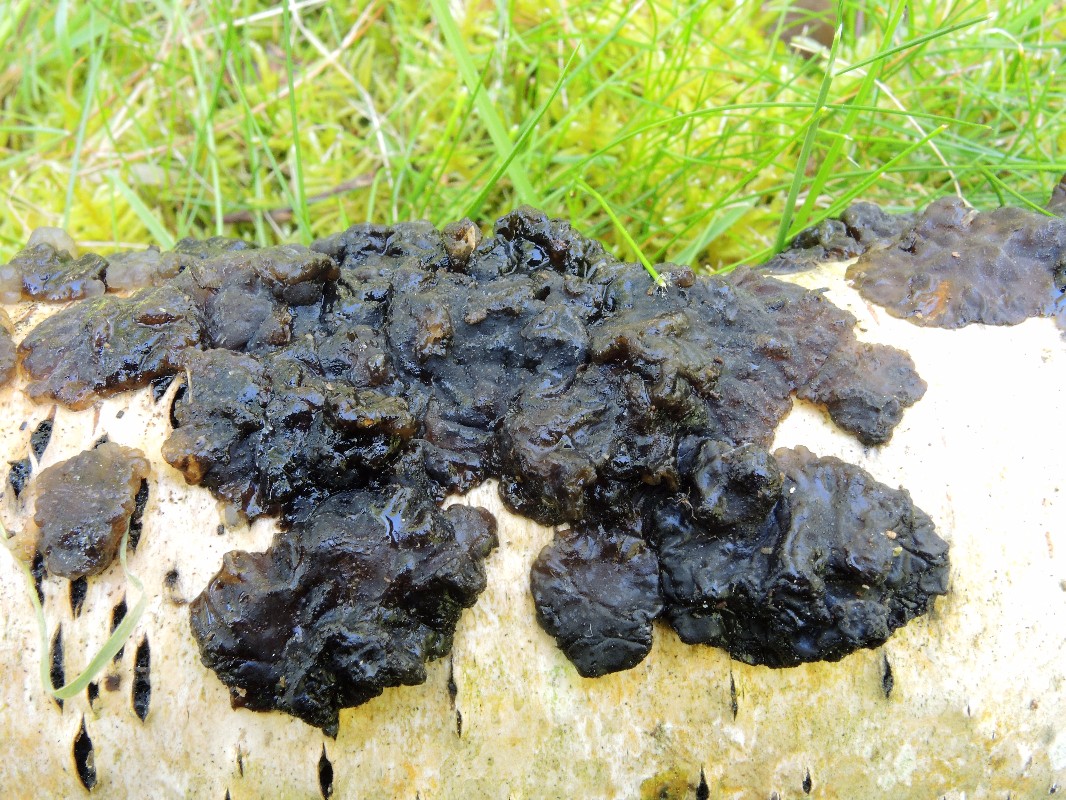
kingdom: Fungi
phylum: Basidiomycota
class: Agaricomycetes
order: Auriculariales
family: Auriculariaceae
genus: Exidia
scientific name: Exidia nigricans
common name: almindelig bævretop
